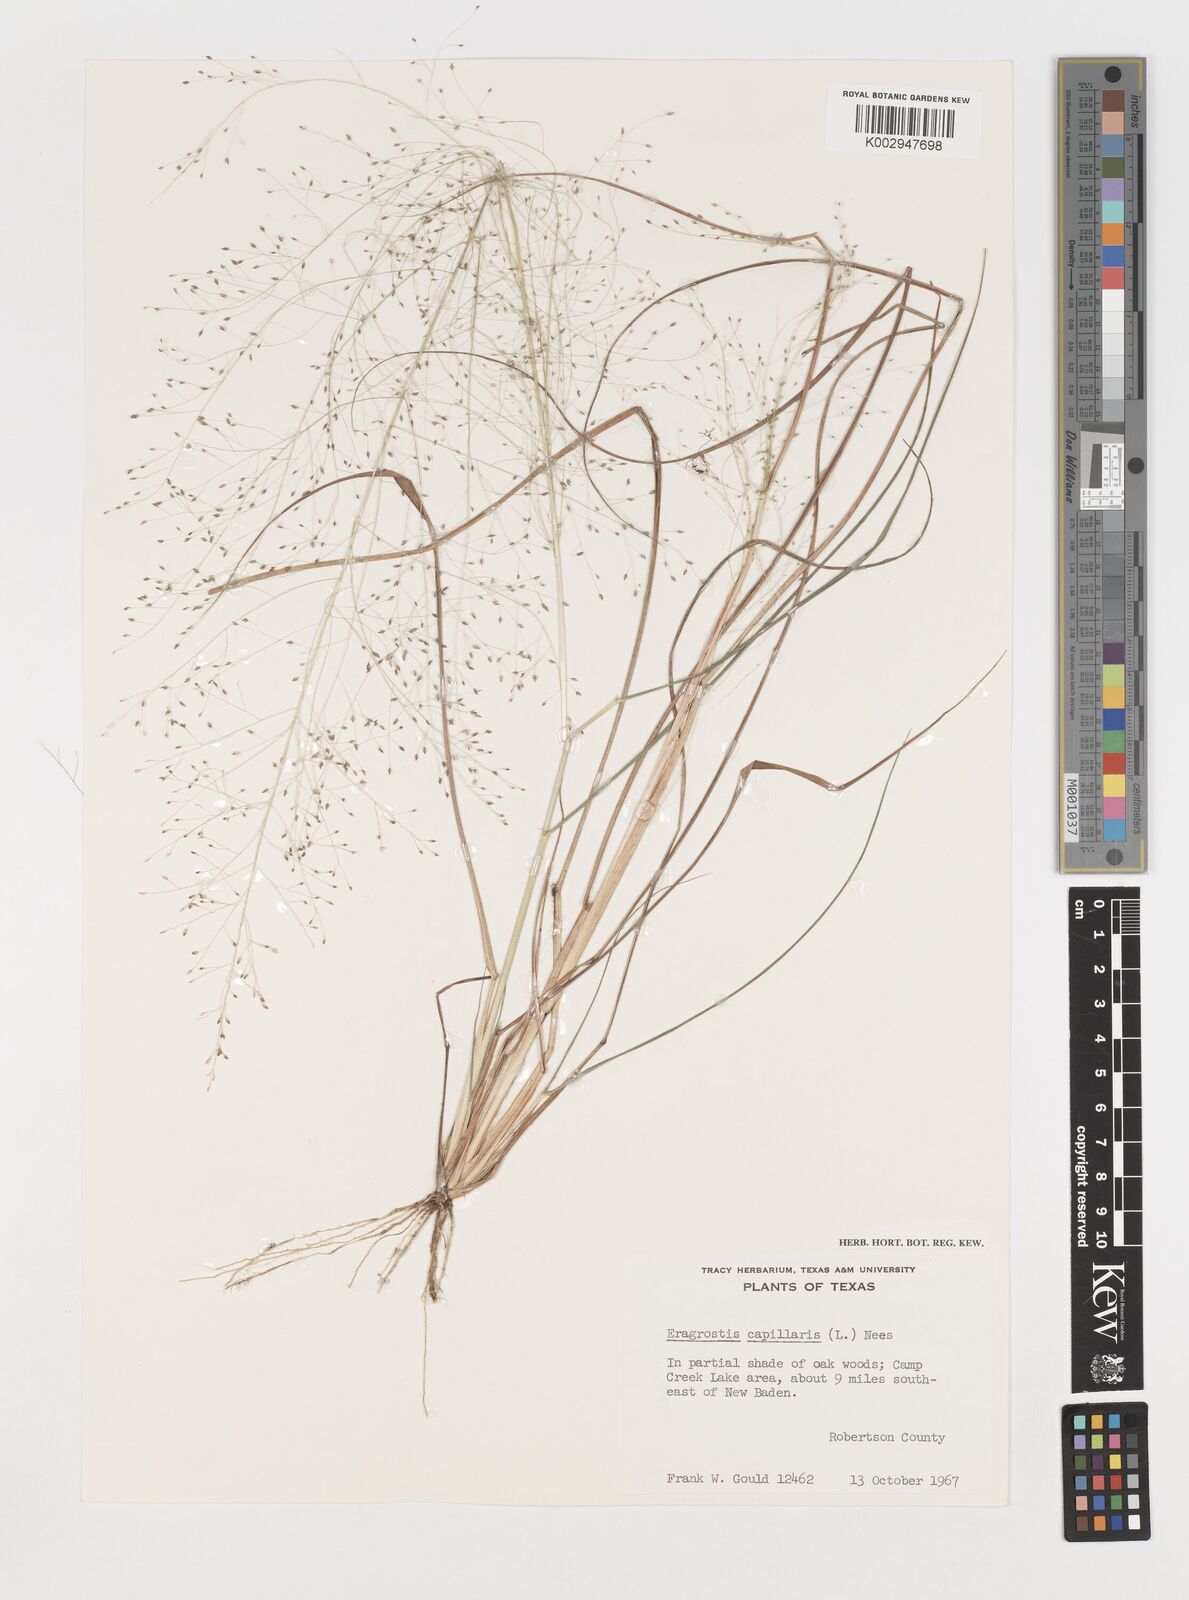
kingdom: Plantae
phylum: Tracheophyta
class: Liliopsida
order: Poales
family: Poaceae
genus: Eragrostis
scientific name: Eragrostis capillaris
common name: Hair-like lovegrass
